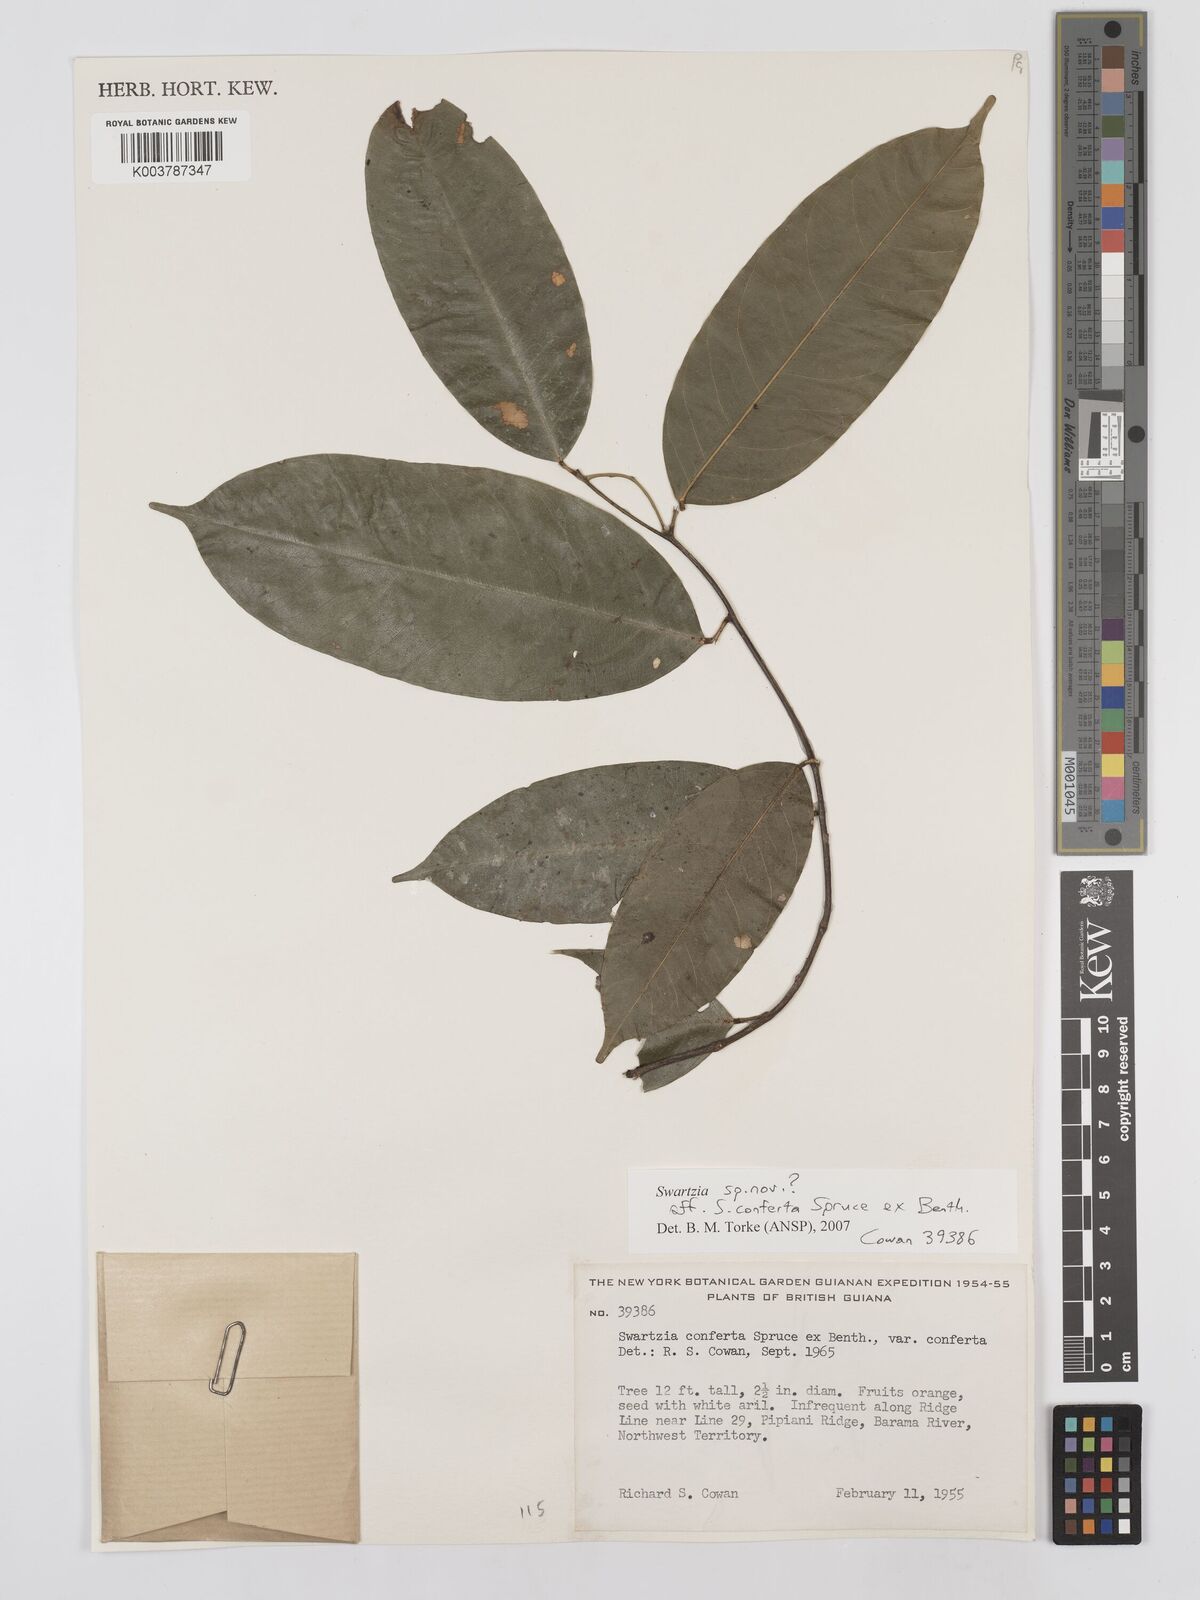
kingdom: Plantae
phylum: Tracheophyta
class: Magnoliopsida
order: Fabales
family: Fabaceae
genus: Swartzia
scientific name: Swartzia conferta
